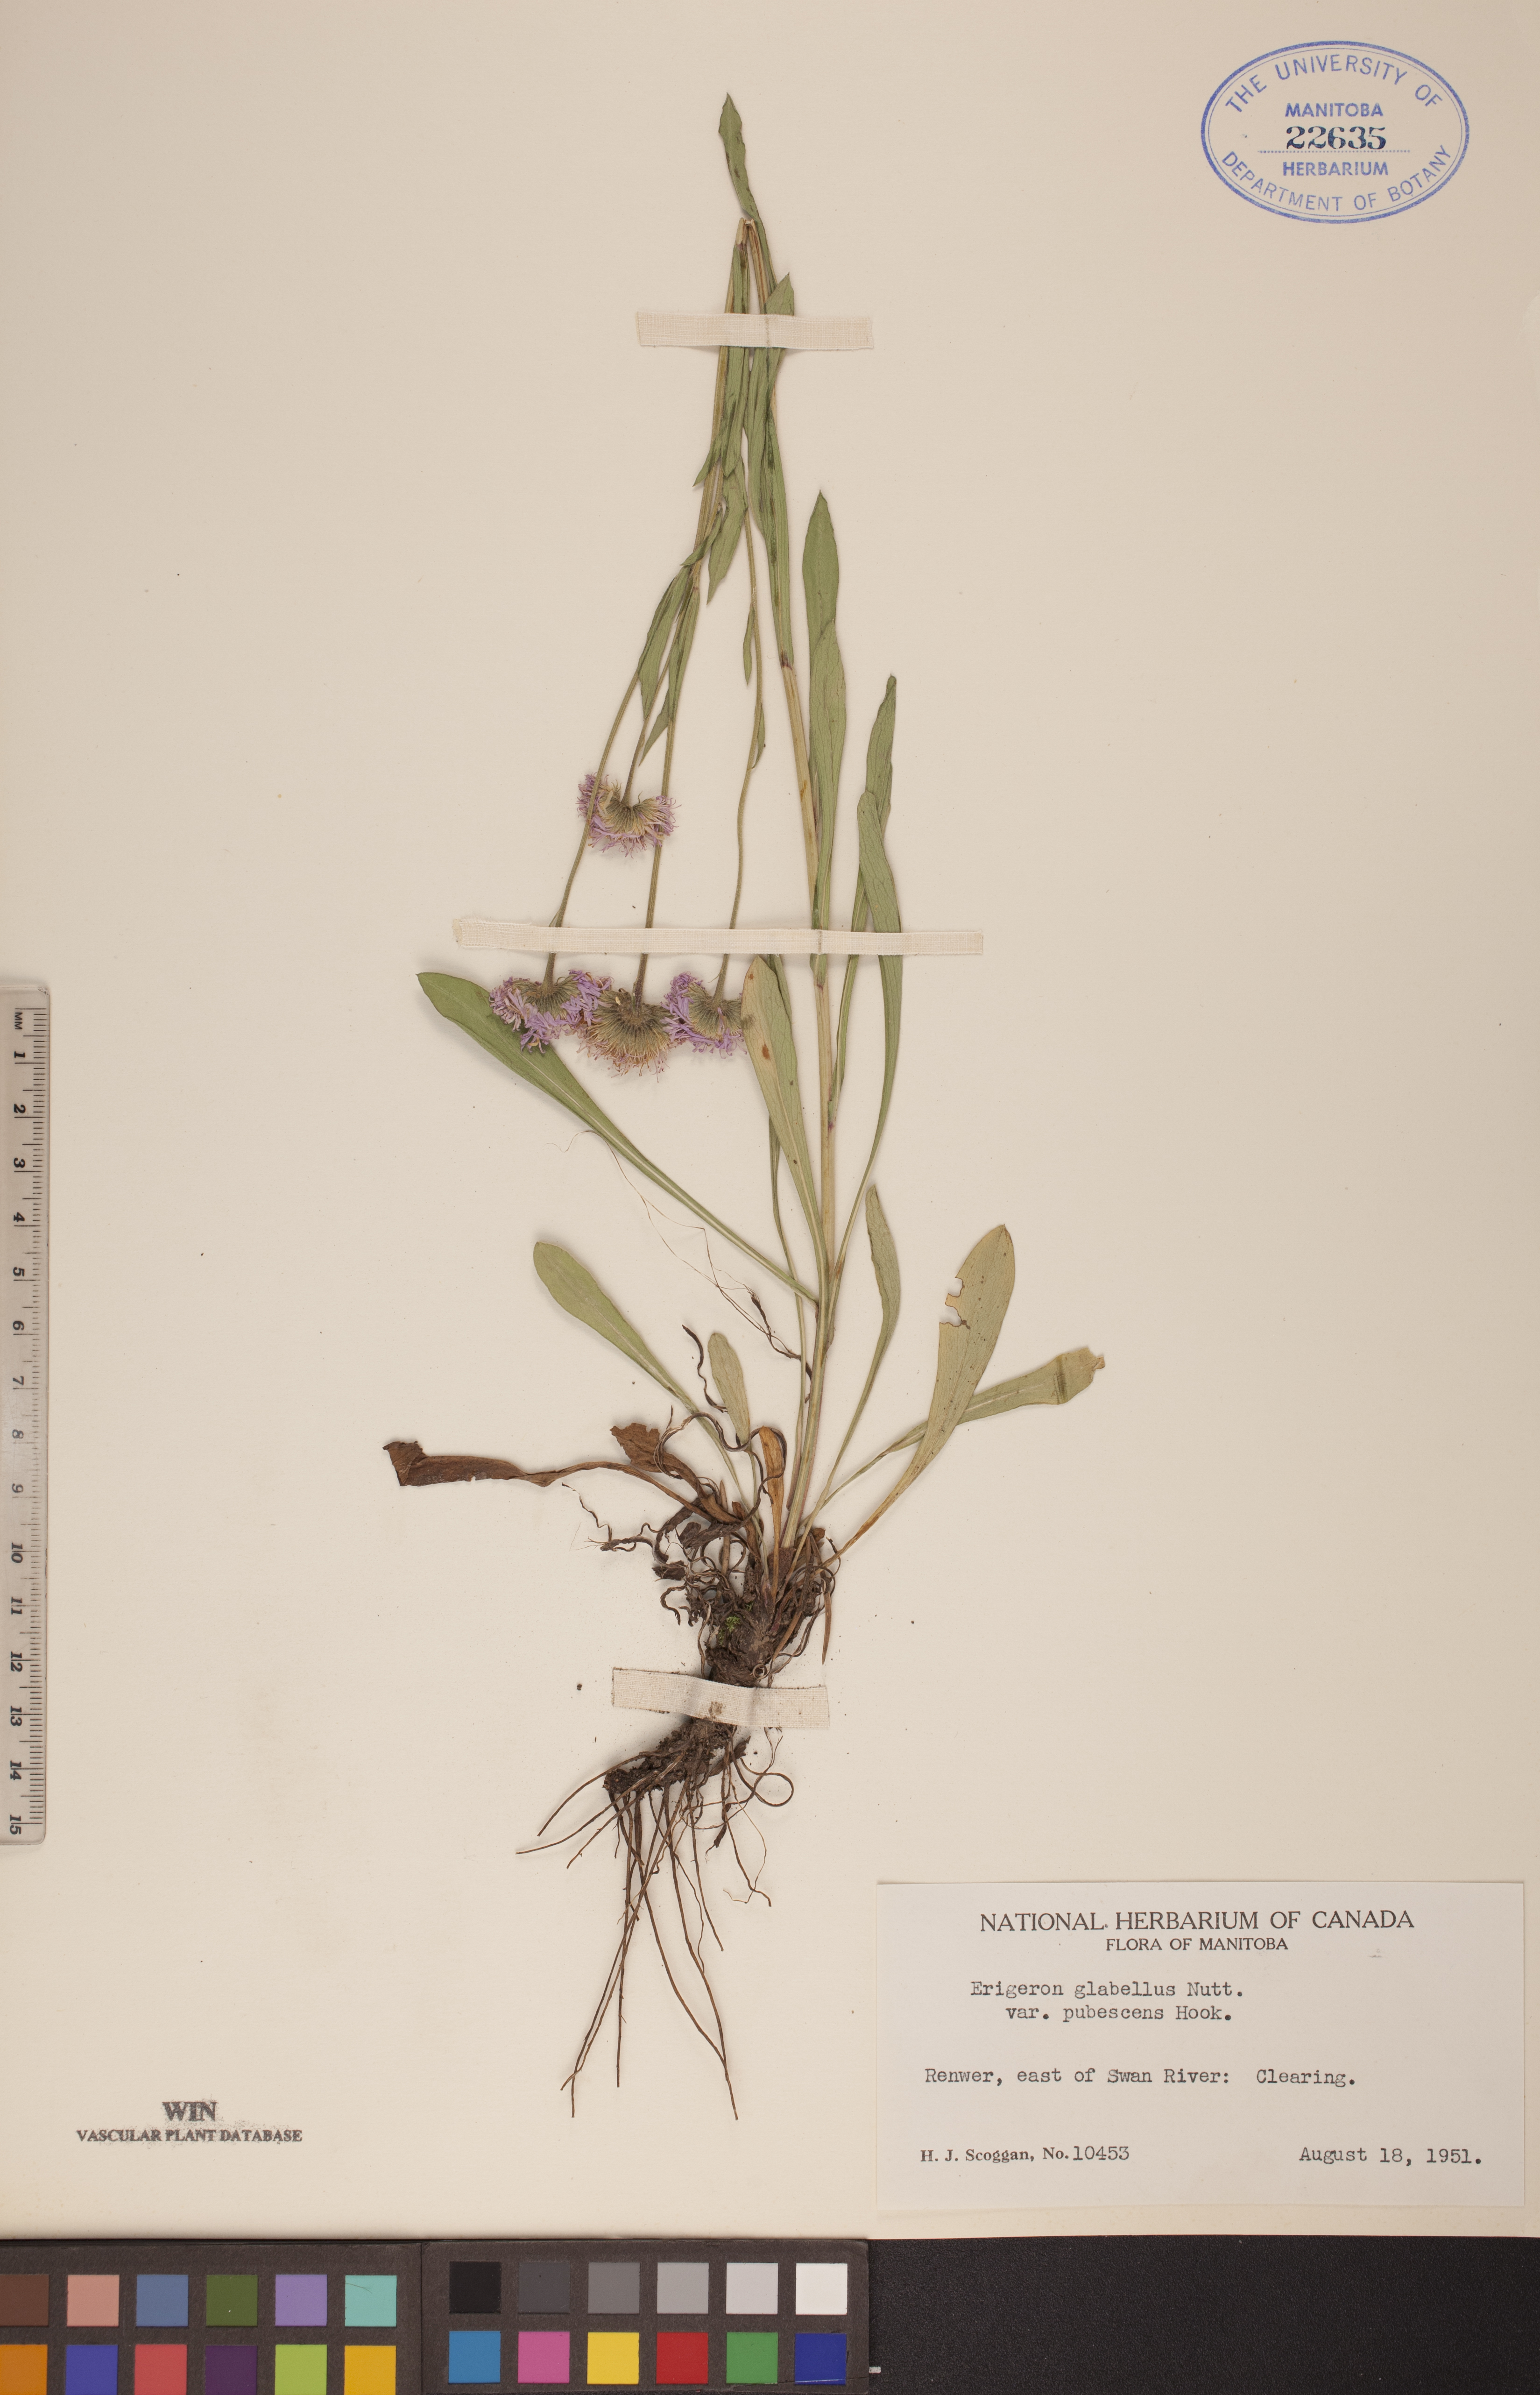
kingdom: Plantae
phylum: Tracheophyta
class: Magnoliopsida
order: Asterales
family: Asteraceae
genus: Erigeron
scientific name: Erigeron glabellus
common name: Smooth fleabane
